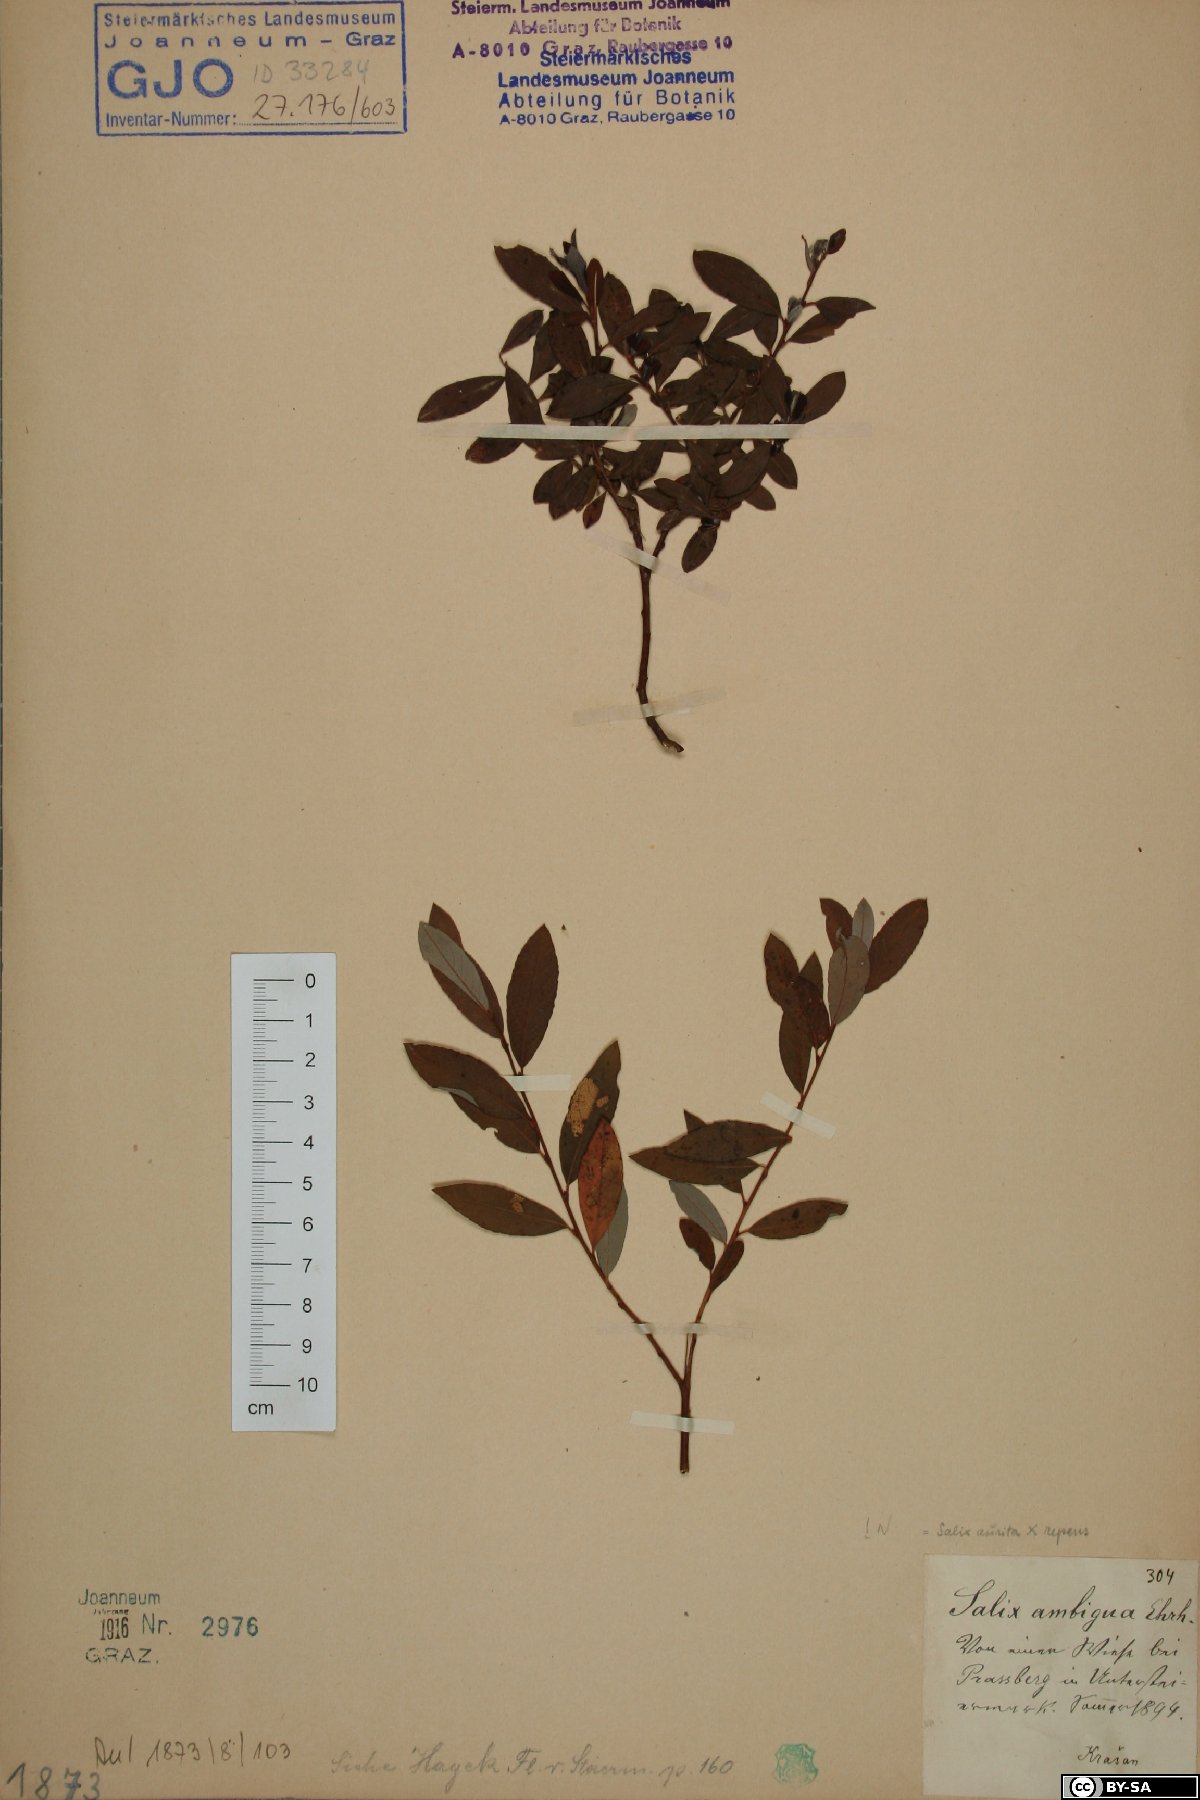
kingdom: Plantae
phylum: Tracheophyta
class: Magnoliopsida
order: Malpighiales
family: Salicaceae
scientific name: Salicaceae
